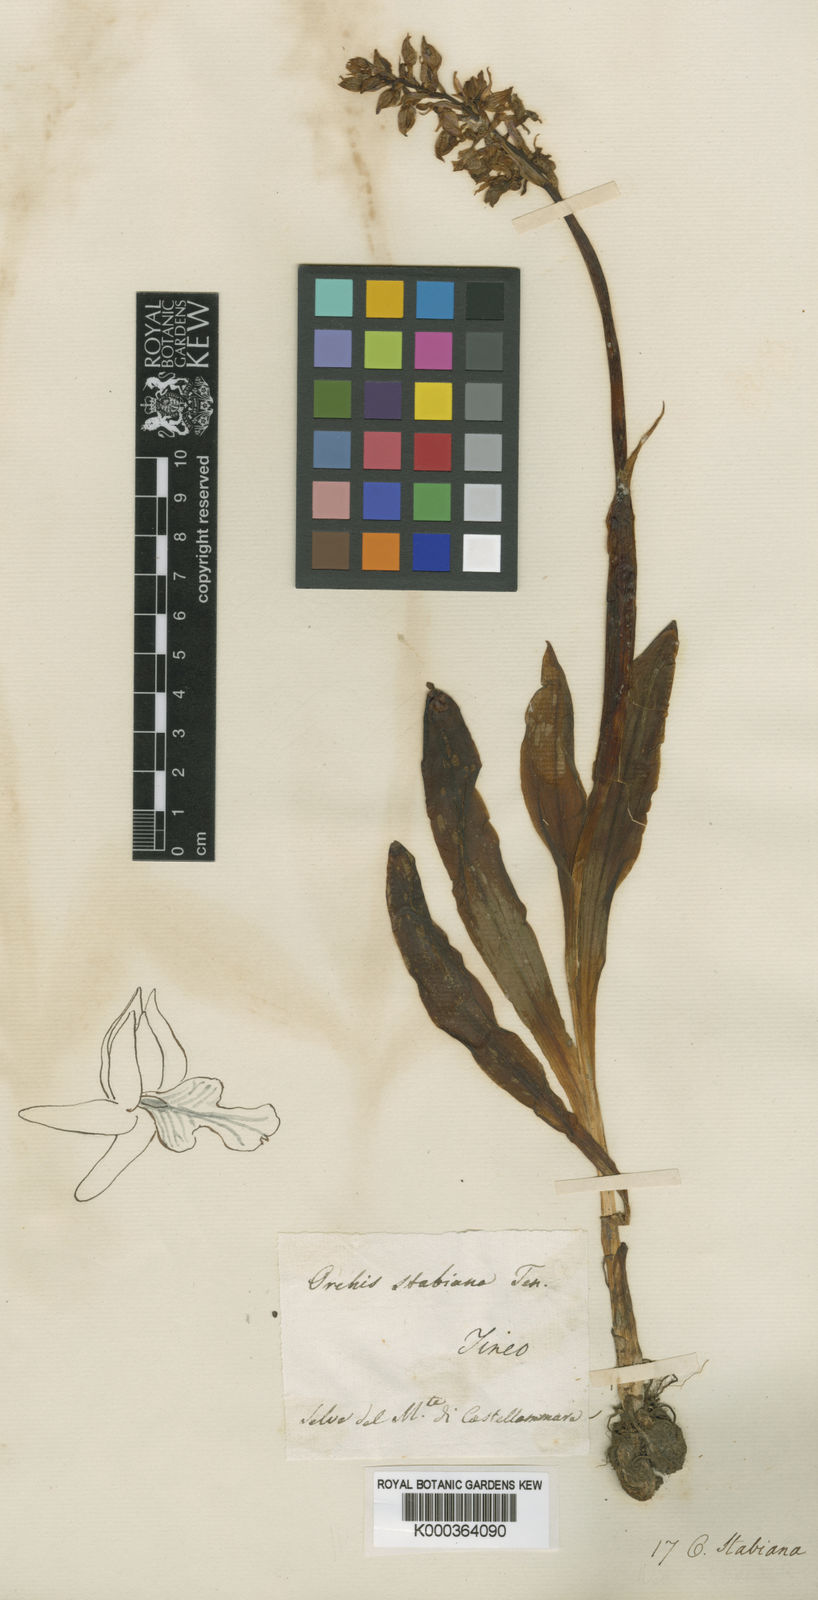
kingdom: Plantae
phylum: Tracheophyta
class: Liliopsida
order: Asparagales
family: Orchidaceae
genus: Orchis
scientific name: Orchis mascula
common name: Early-purple orchid
